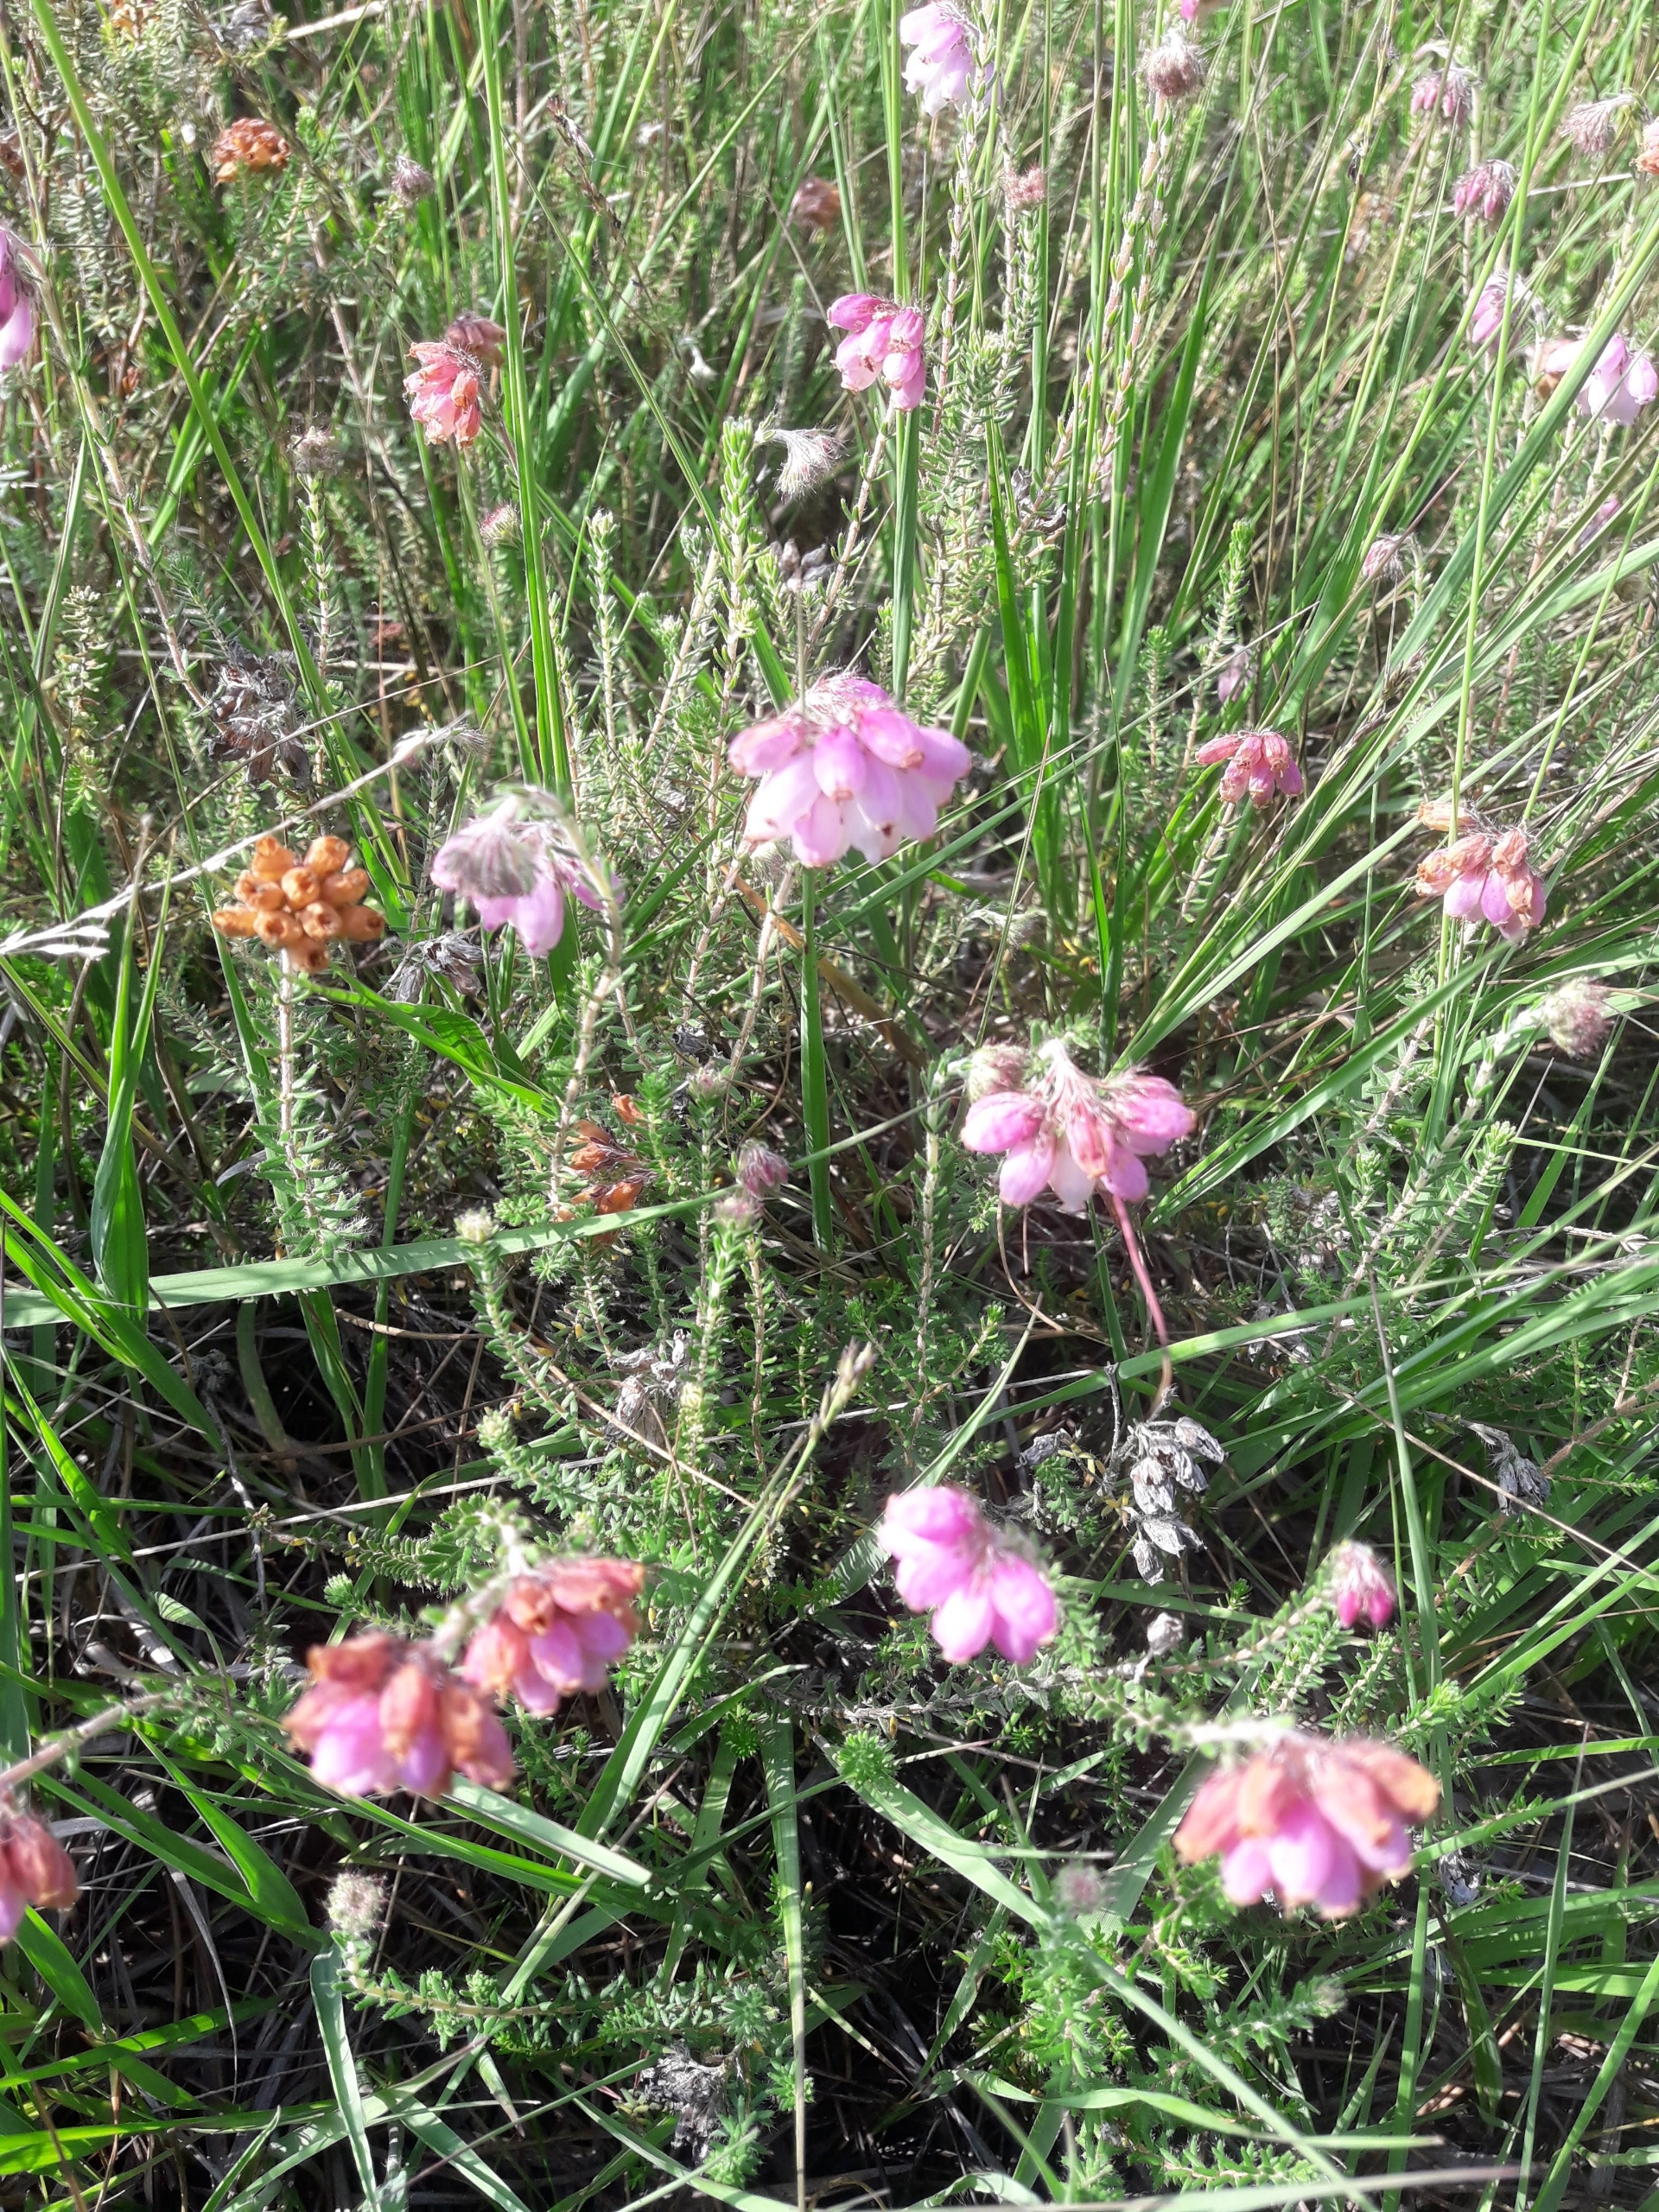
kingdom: Plantae
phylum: Tracheophyta
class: Magnoliopsida
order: Ericales
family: Ericaceae
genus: Erica
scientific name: Erica tetralix
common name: Klokkelyng
